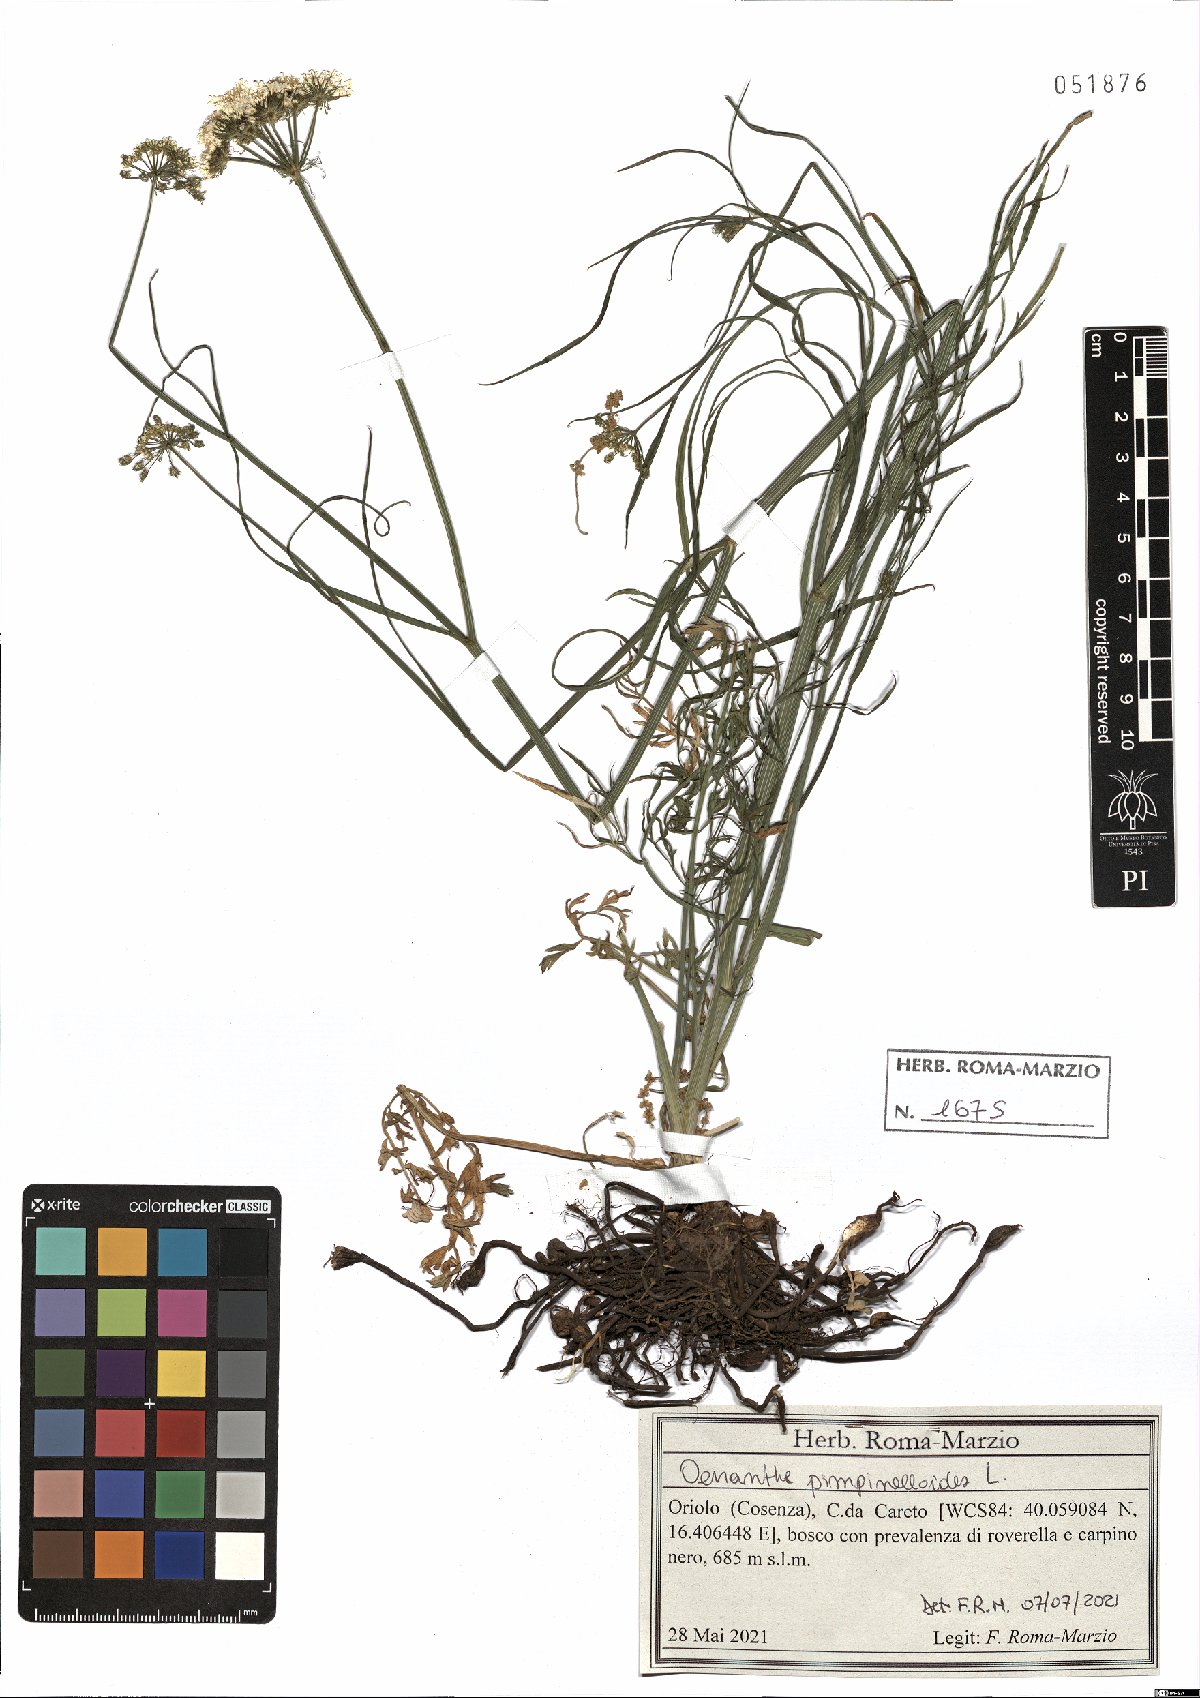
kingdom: Plantae
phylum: Tracheophyta
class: Magnoliopsida
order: Apiales
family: Apiaceae
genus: Oenanthe
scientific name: Oenanthe pimpinelloides
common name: Corky-fruited water-dropwort
